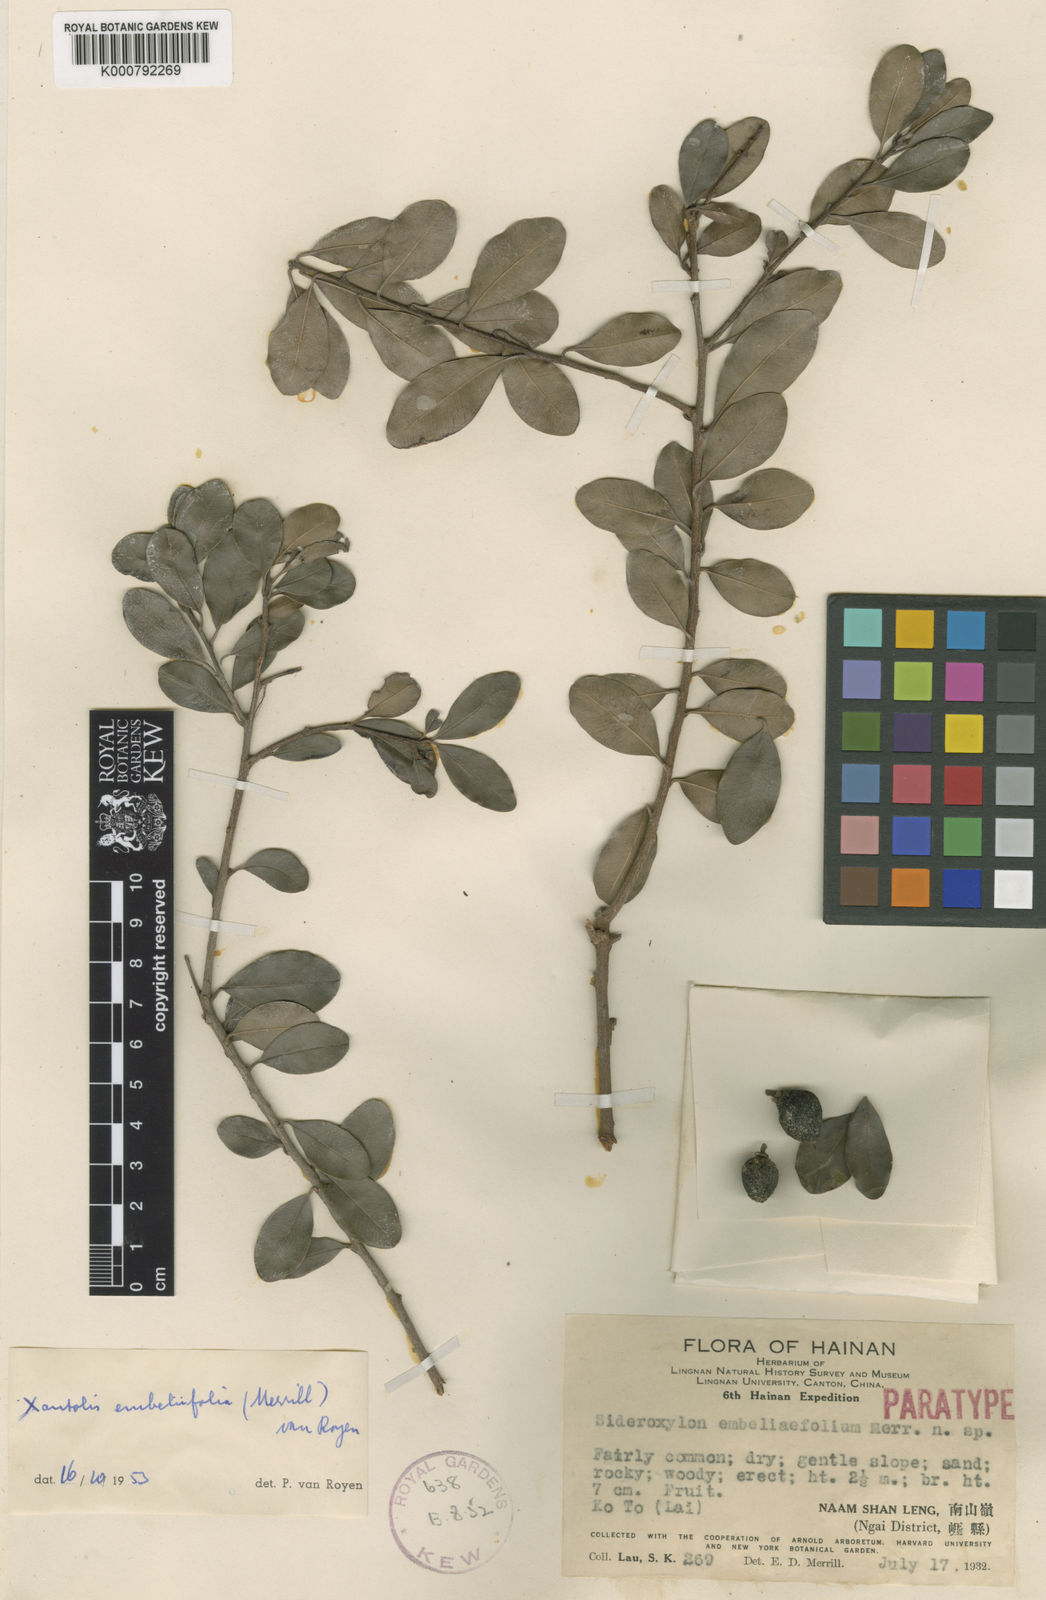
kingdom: Plantae
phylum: Tracheophyta
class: Magnoliopsida
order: Ericales
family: Sapotaceae
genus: Xantolis
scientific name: Xantolis longispinosa
